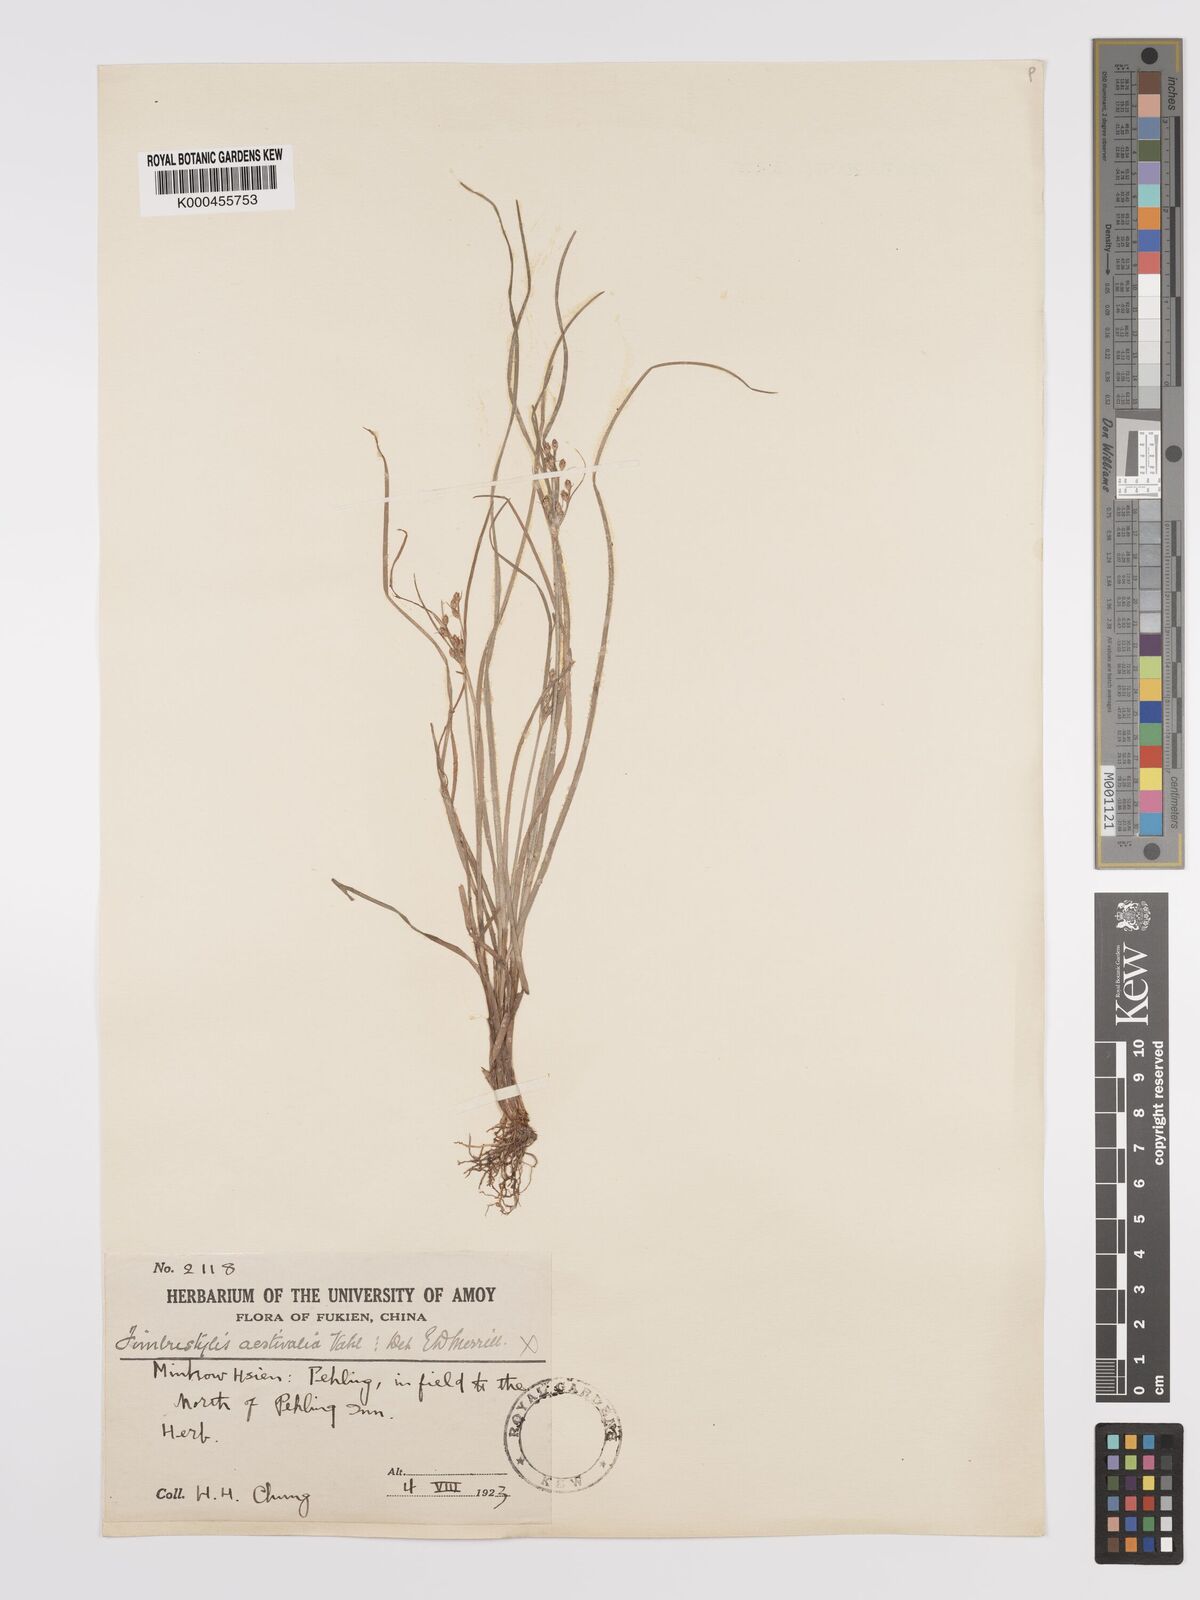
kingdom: Plantae
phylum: Tracheophyta
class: Liliopsida
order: Poales
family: Cyperaceae
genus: Fimbristylis
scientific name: Fimbristylis dichotoma
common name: Forked fimbry
